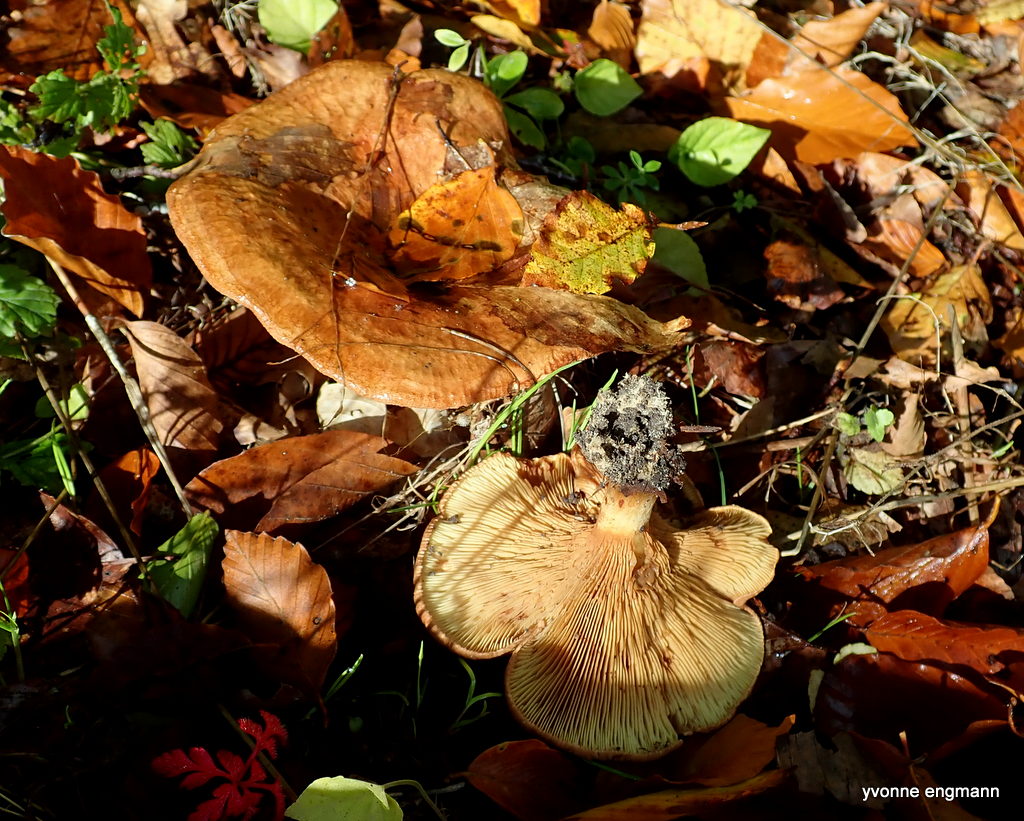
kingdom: Fungi
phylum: Basidiomycota
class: Agaricomycetes
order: Boletales
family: Paxillaceae
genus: Paxillus
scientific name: Paxillus involutus
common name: almindelig netbladhat
